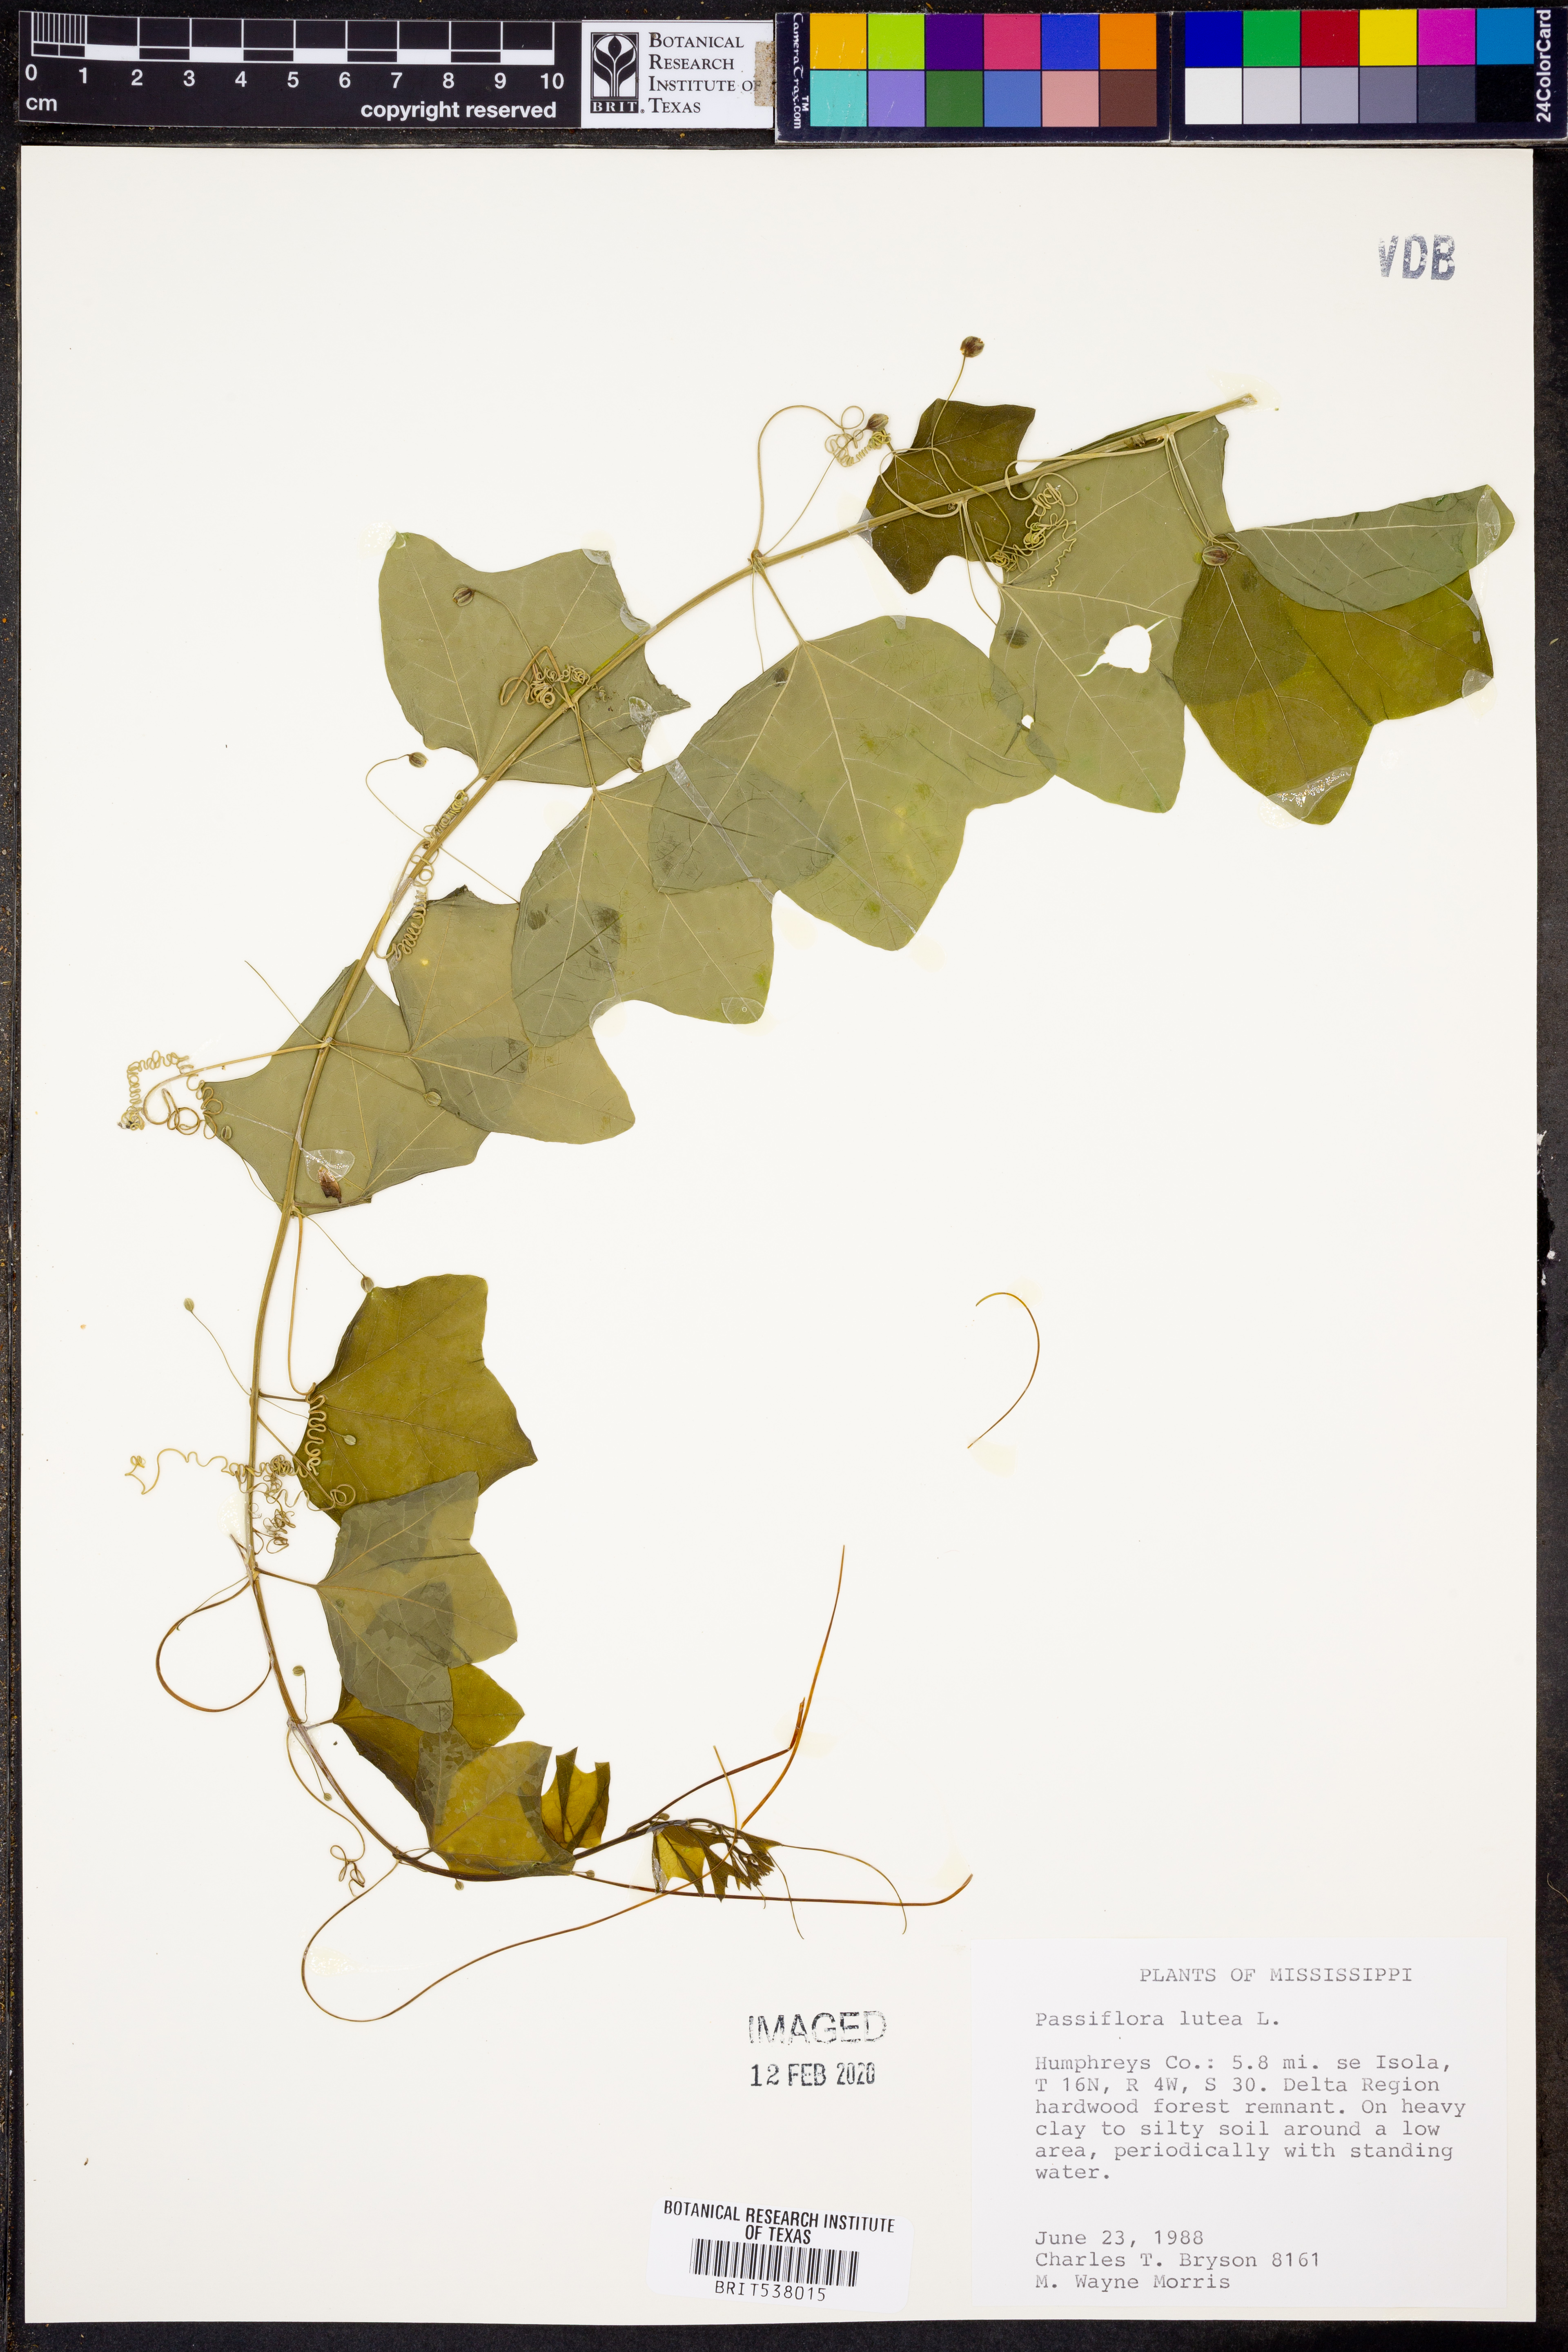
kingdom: Plantae
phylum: Tracheophyta
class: Magnoliopsida
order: Malpighiales
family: Passifloraceae
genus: Passiflora
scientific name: Passiflora lutea
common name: Yellow passionflower
